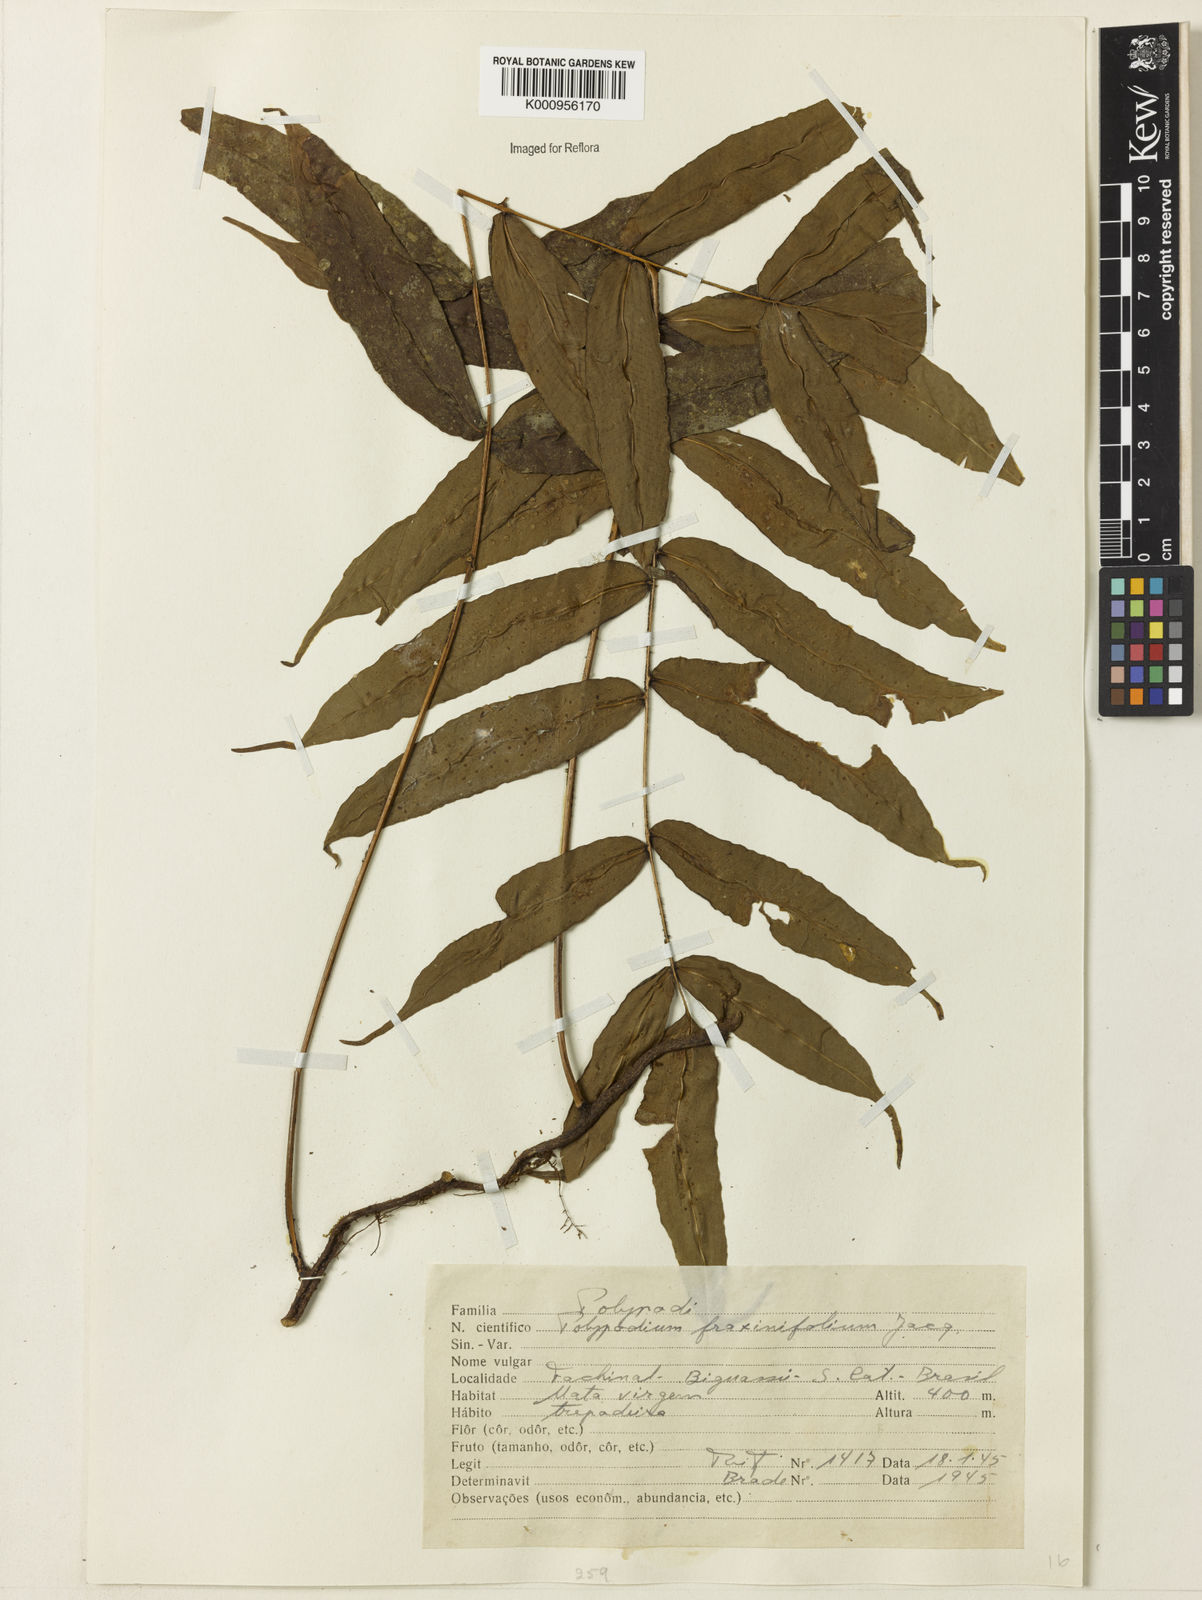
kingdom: Plantae
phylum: Tracheophyta
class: Polypodiopsida
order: Polypodiales
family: Polypodiaceae
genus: Serpocaulon
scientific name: Serpocaulon fraxinifolium
